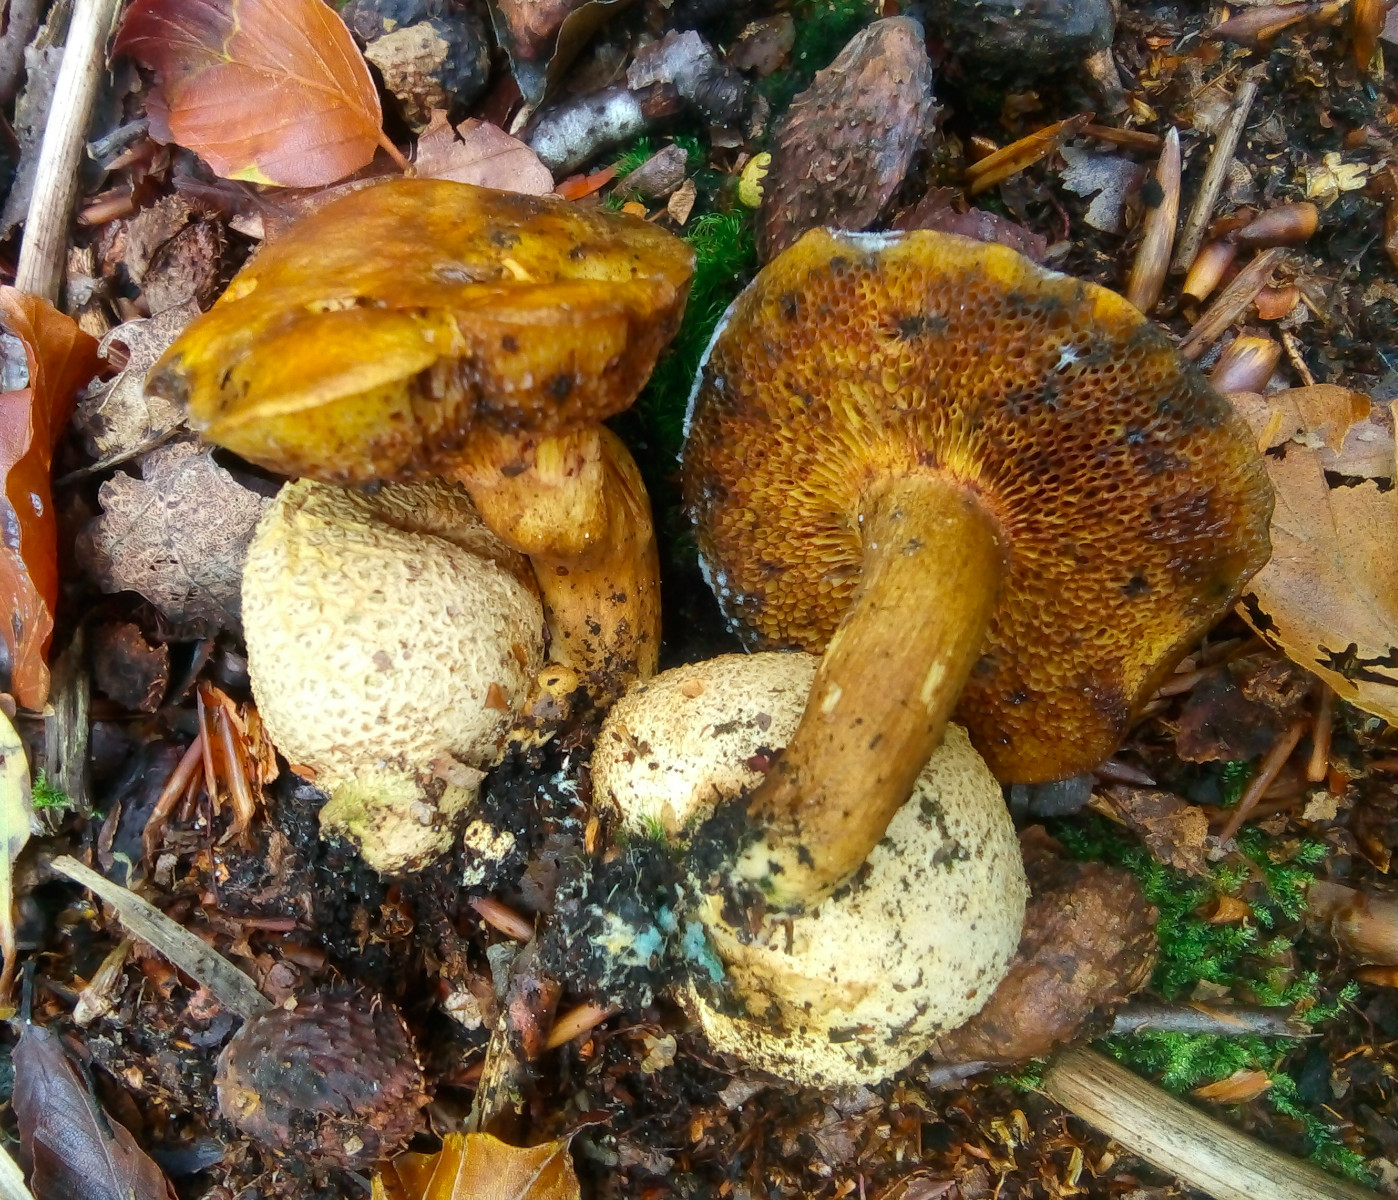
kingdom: Fungi
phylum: Basidiomycota
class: Agaricomycetes
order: Boletales
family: Boletaceae
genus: Pseudoboletus
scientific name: Pseudoboletus parasiticus
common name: snyltende rørhat
